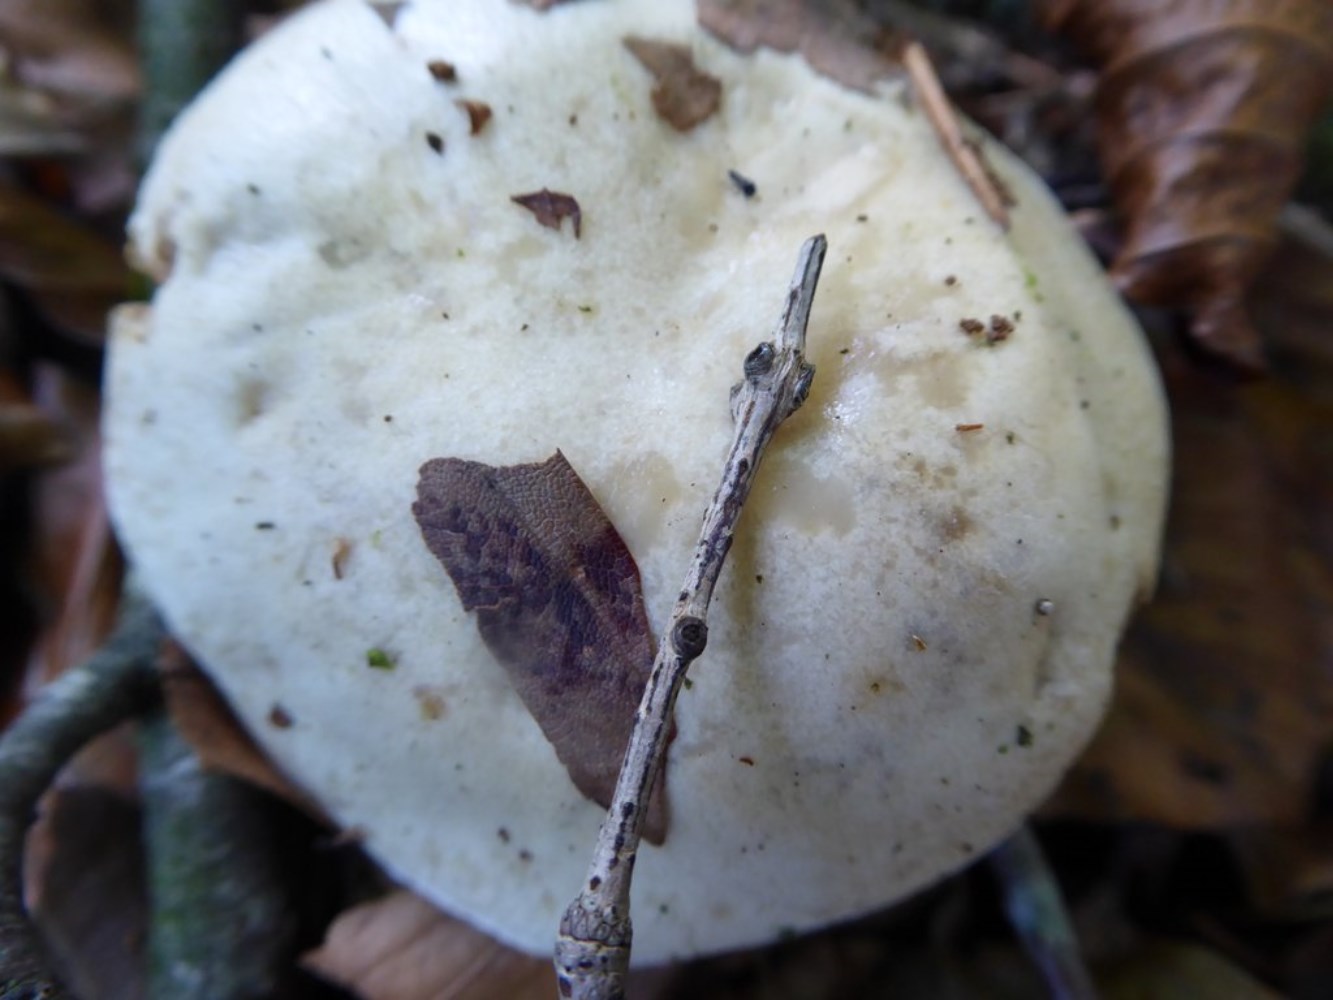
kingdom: Fungi
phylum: Basidiomycota
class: Agaricomycetes
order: Cantharellales
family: Hydnaceae
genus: Hydnum
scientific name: Hydnum repandum
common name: almindelig pigsvamp
